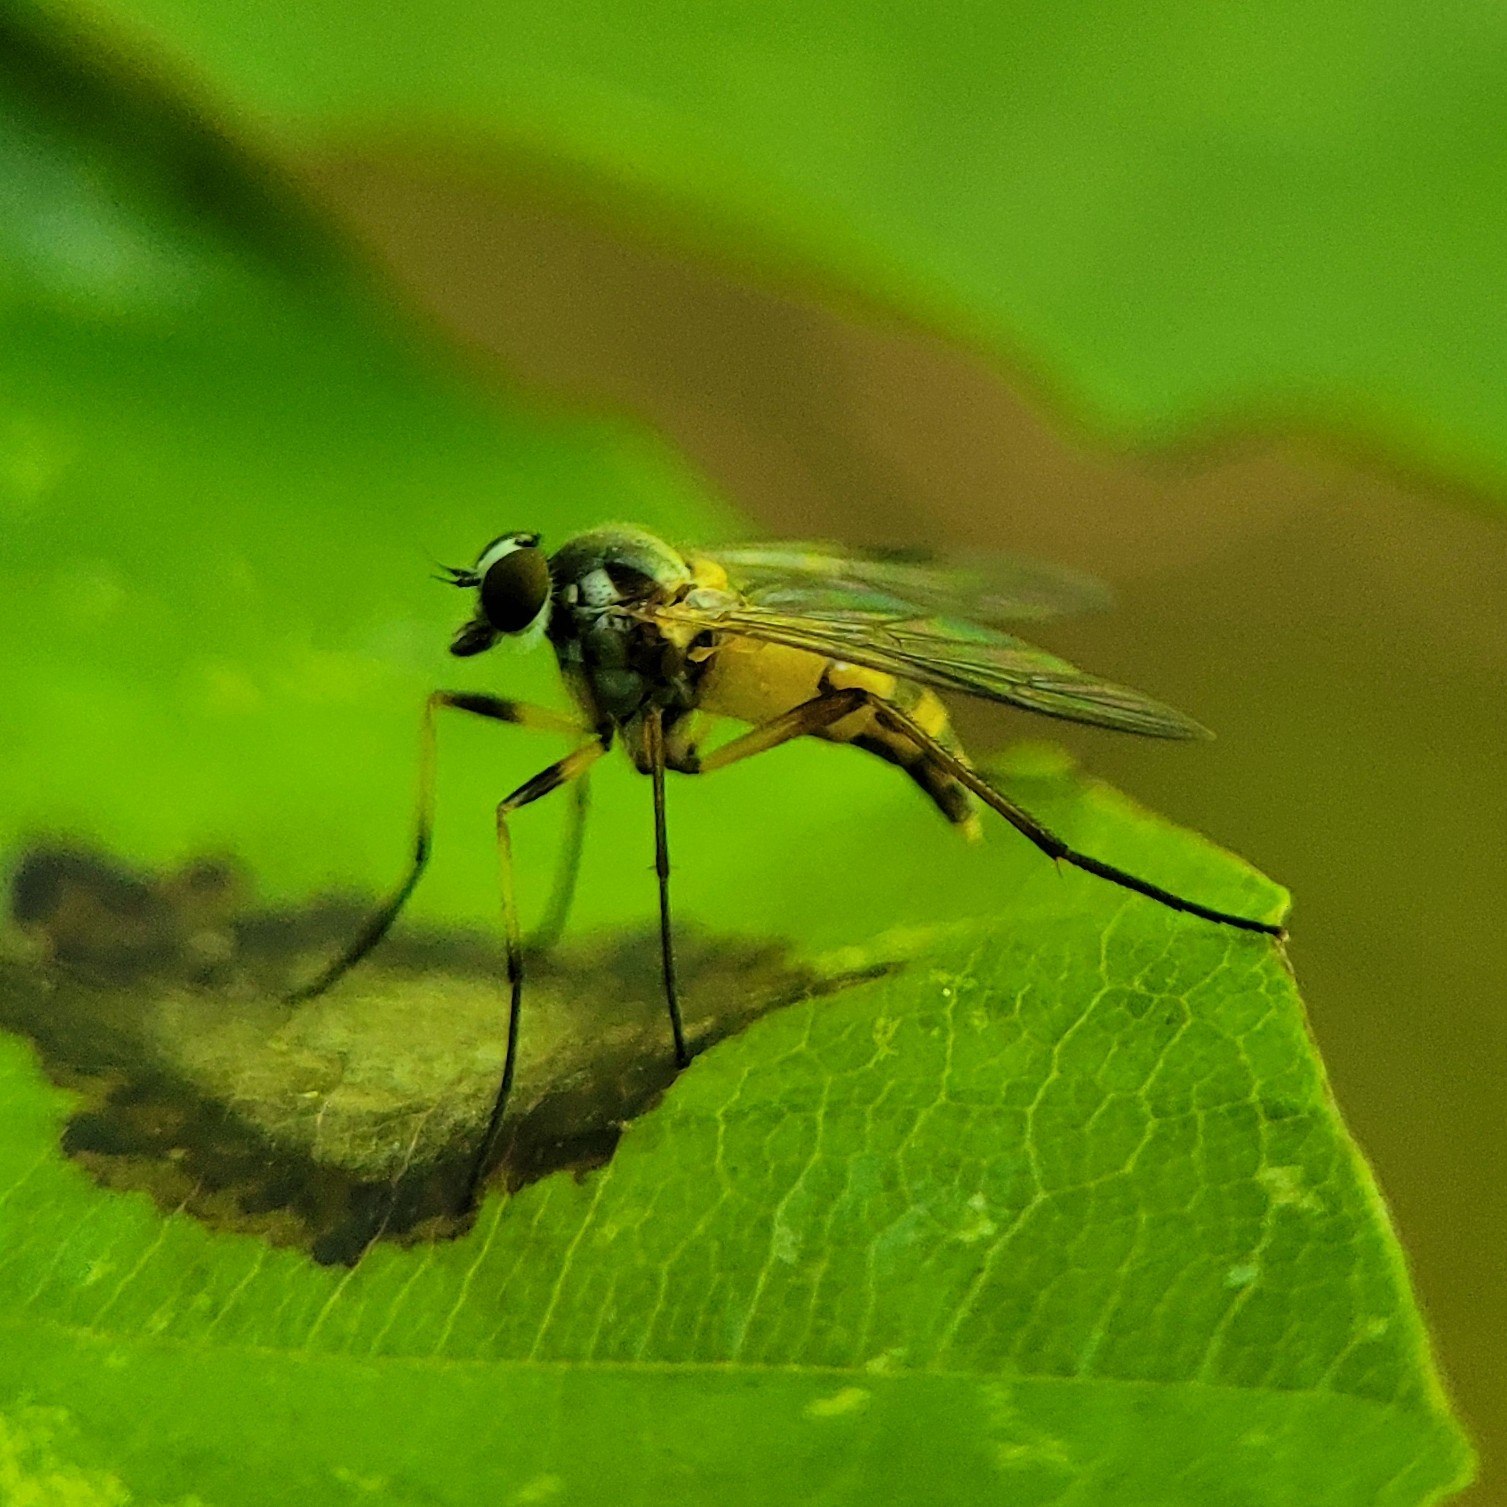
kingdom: Animalia
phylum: Arthropoda
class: Insecta
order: Diptera
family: Rhagionidae
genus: Rhagio
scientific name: Rhagio lineola
